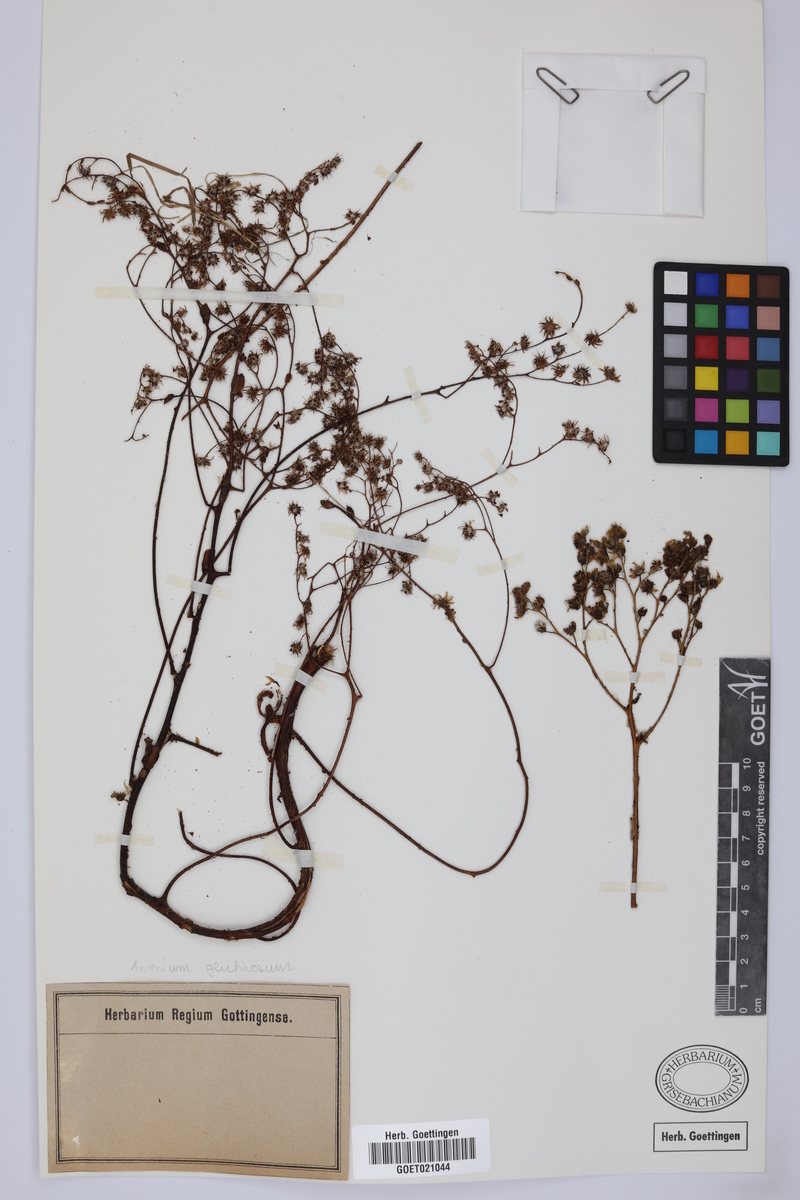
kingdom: Plantae
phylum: Tracheophyta
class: Magnoliopsida
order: Saxifragales
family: Crassulaceae
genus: Aeonium
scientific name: Aeonium glutinosum
